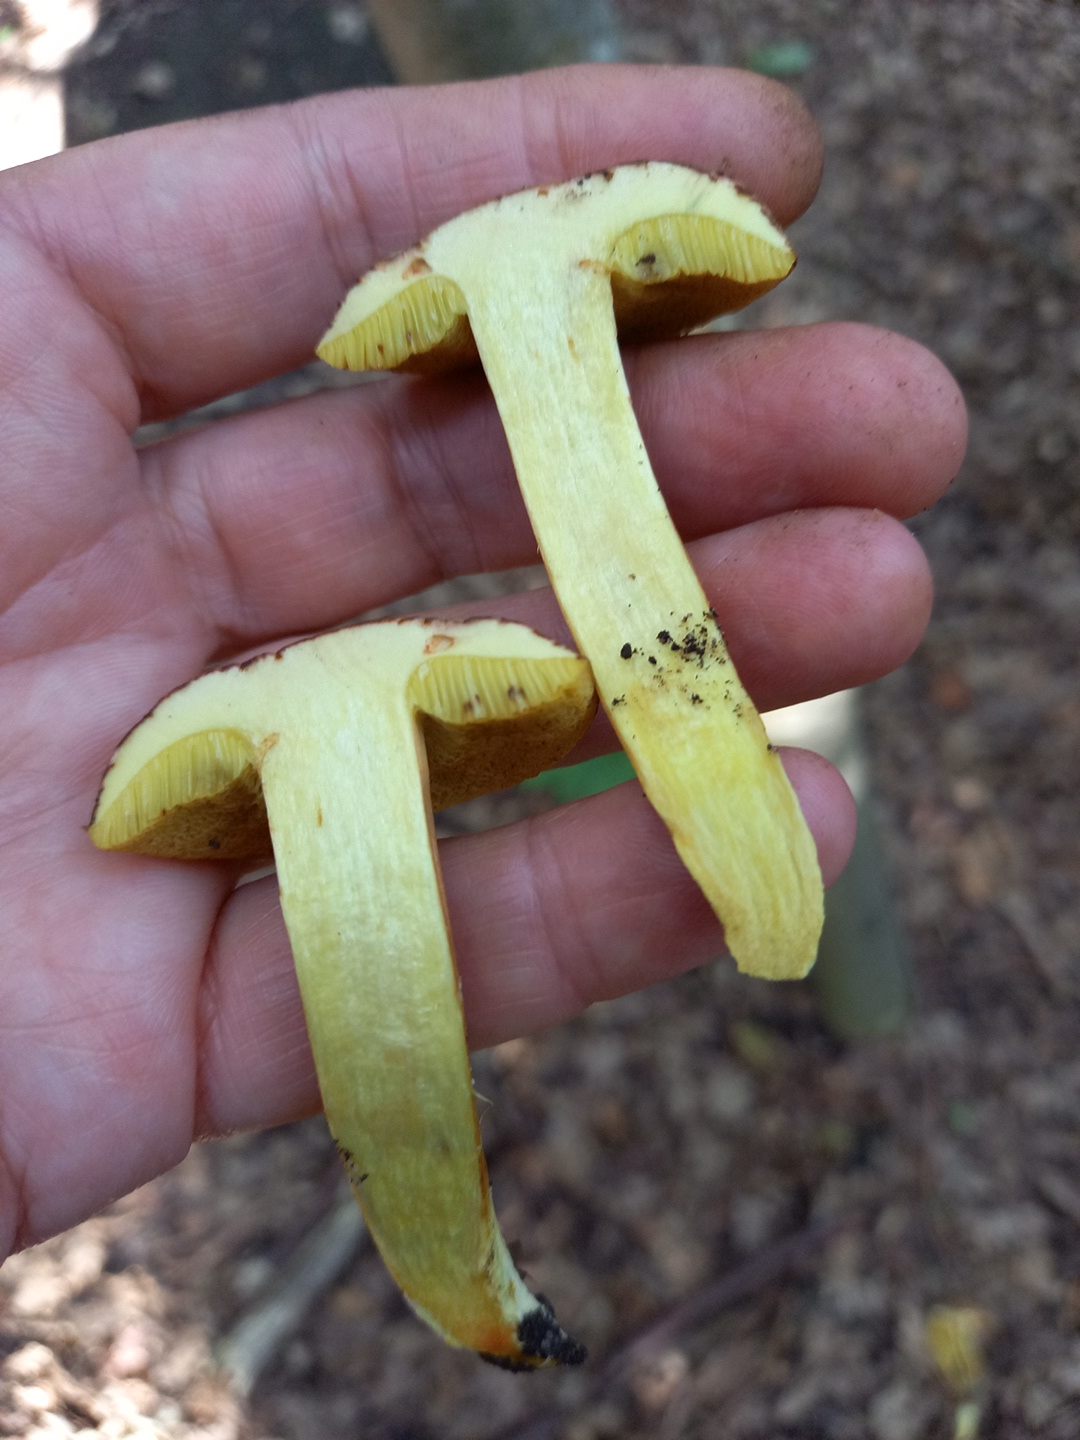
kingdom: Fungi
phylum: Basidiomycota
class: Agaricomycetes
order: Boletales
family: Boletaceae
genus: Hortiboletus
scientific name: Hortiboletus engelii
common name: fersken-rørhat
